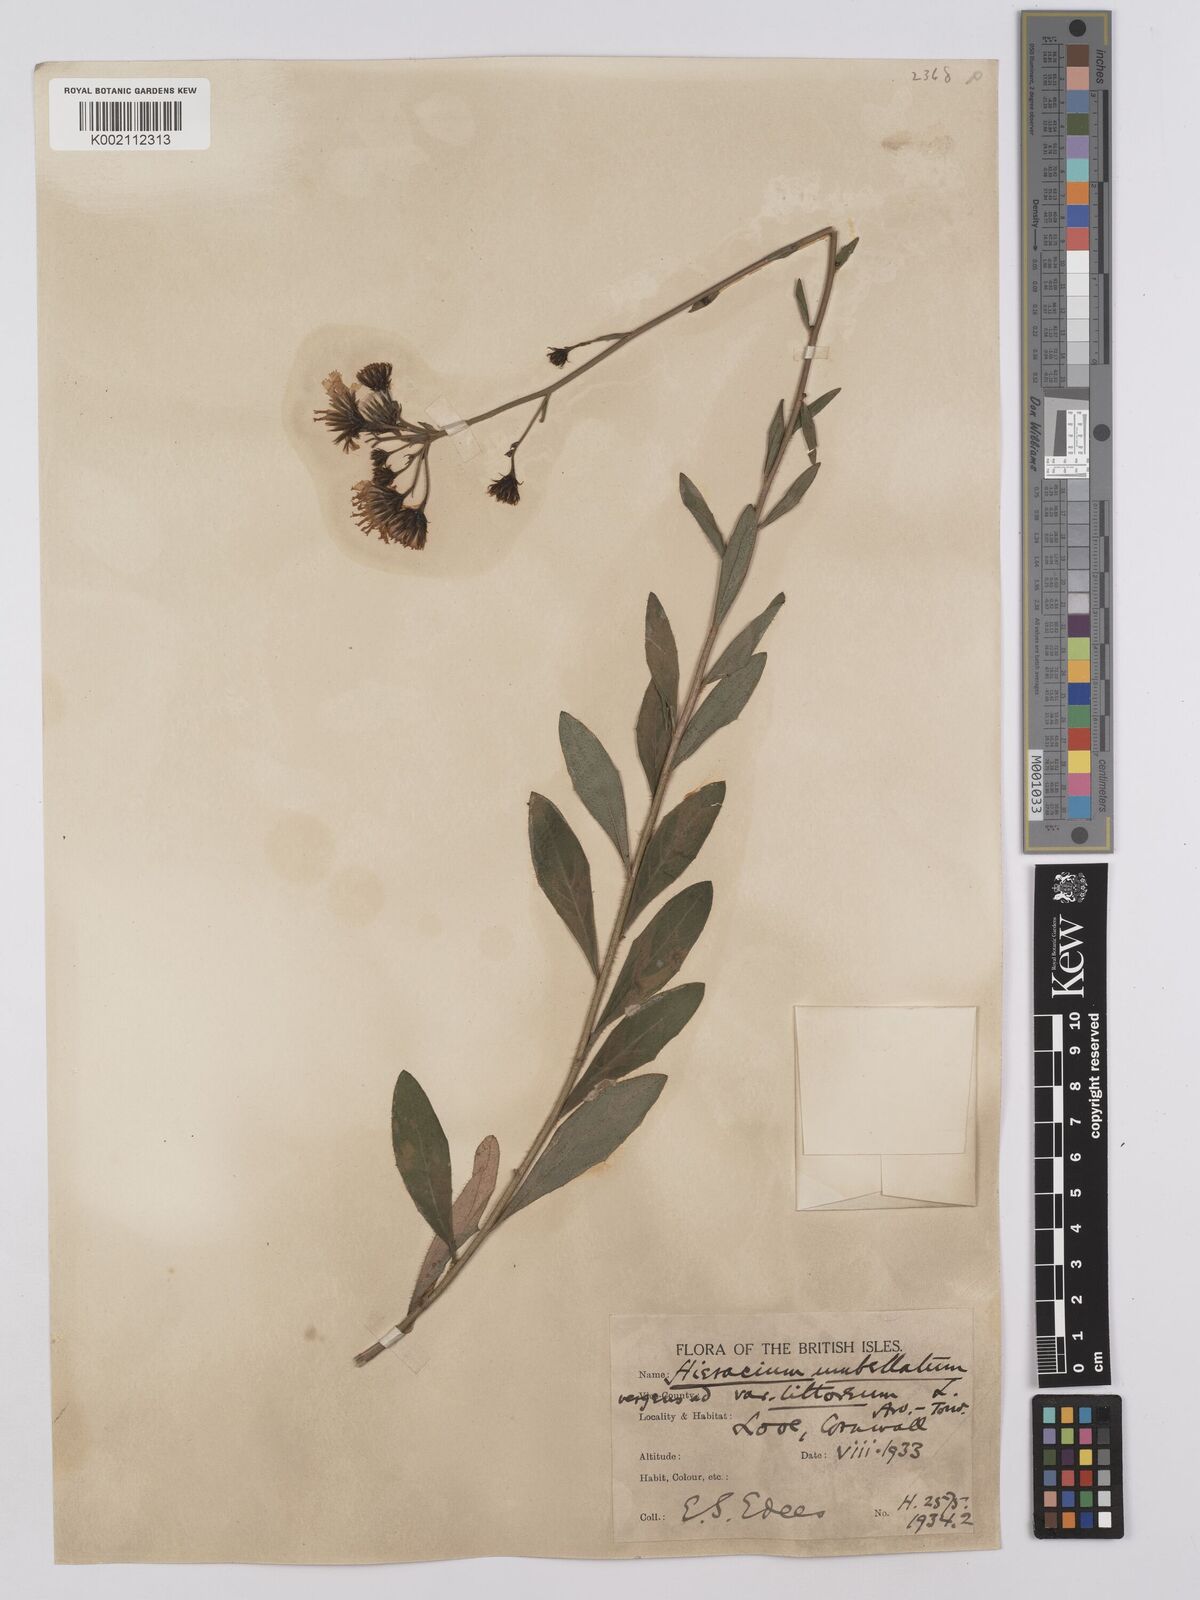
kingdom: Plantae
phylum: Tracheophyta
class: Magnoliopsida
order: Asterales
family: Asteraceae
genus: Hieracium
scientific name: Hieracium umbellatum
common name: Northern hawkweed
